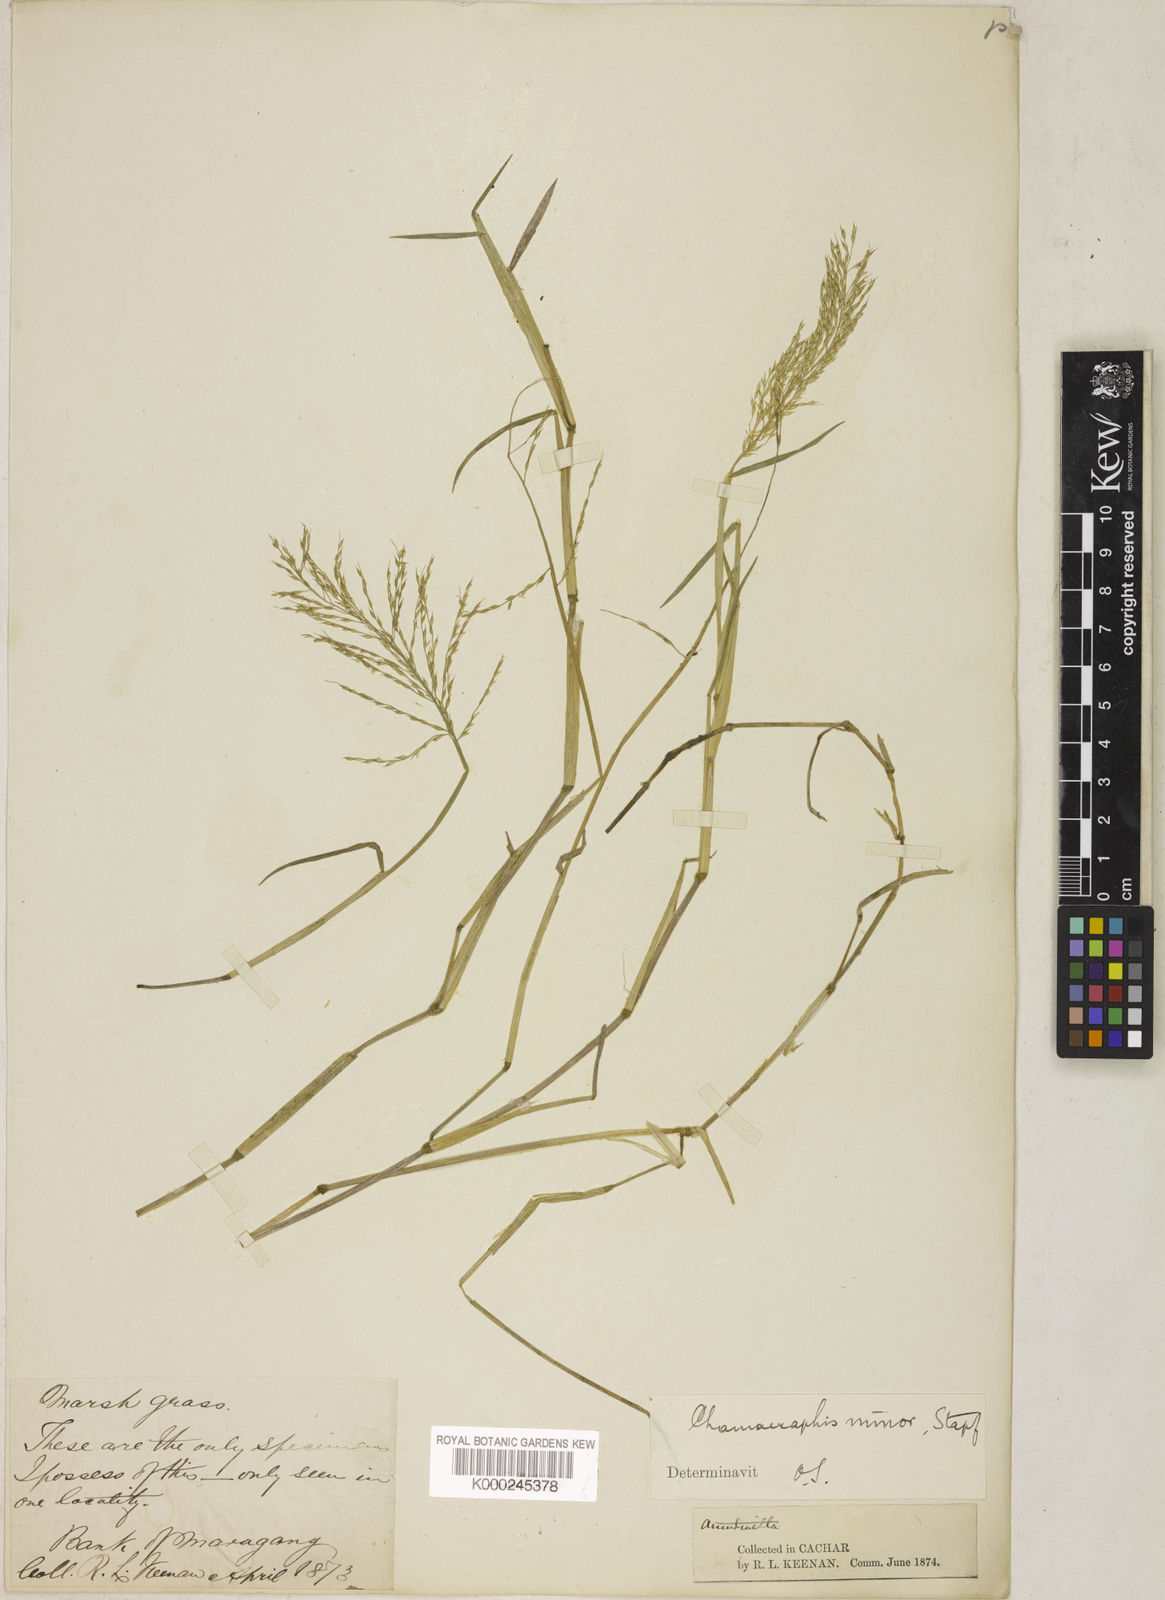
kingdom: Plantae
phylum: Tracheophyta
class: Liliopsida
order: Poales
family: Poaceae
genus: Pseudoraphis
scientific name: Pseudoraphis minuta
